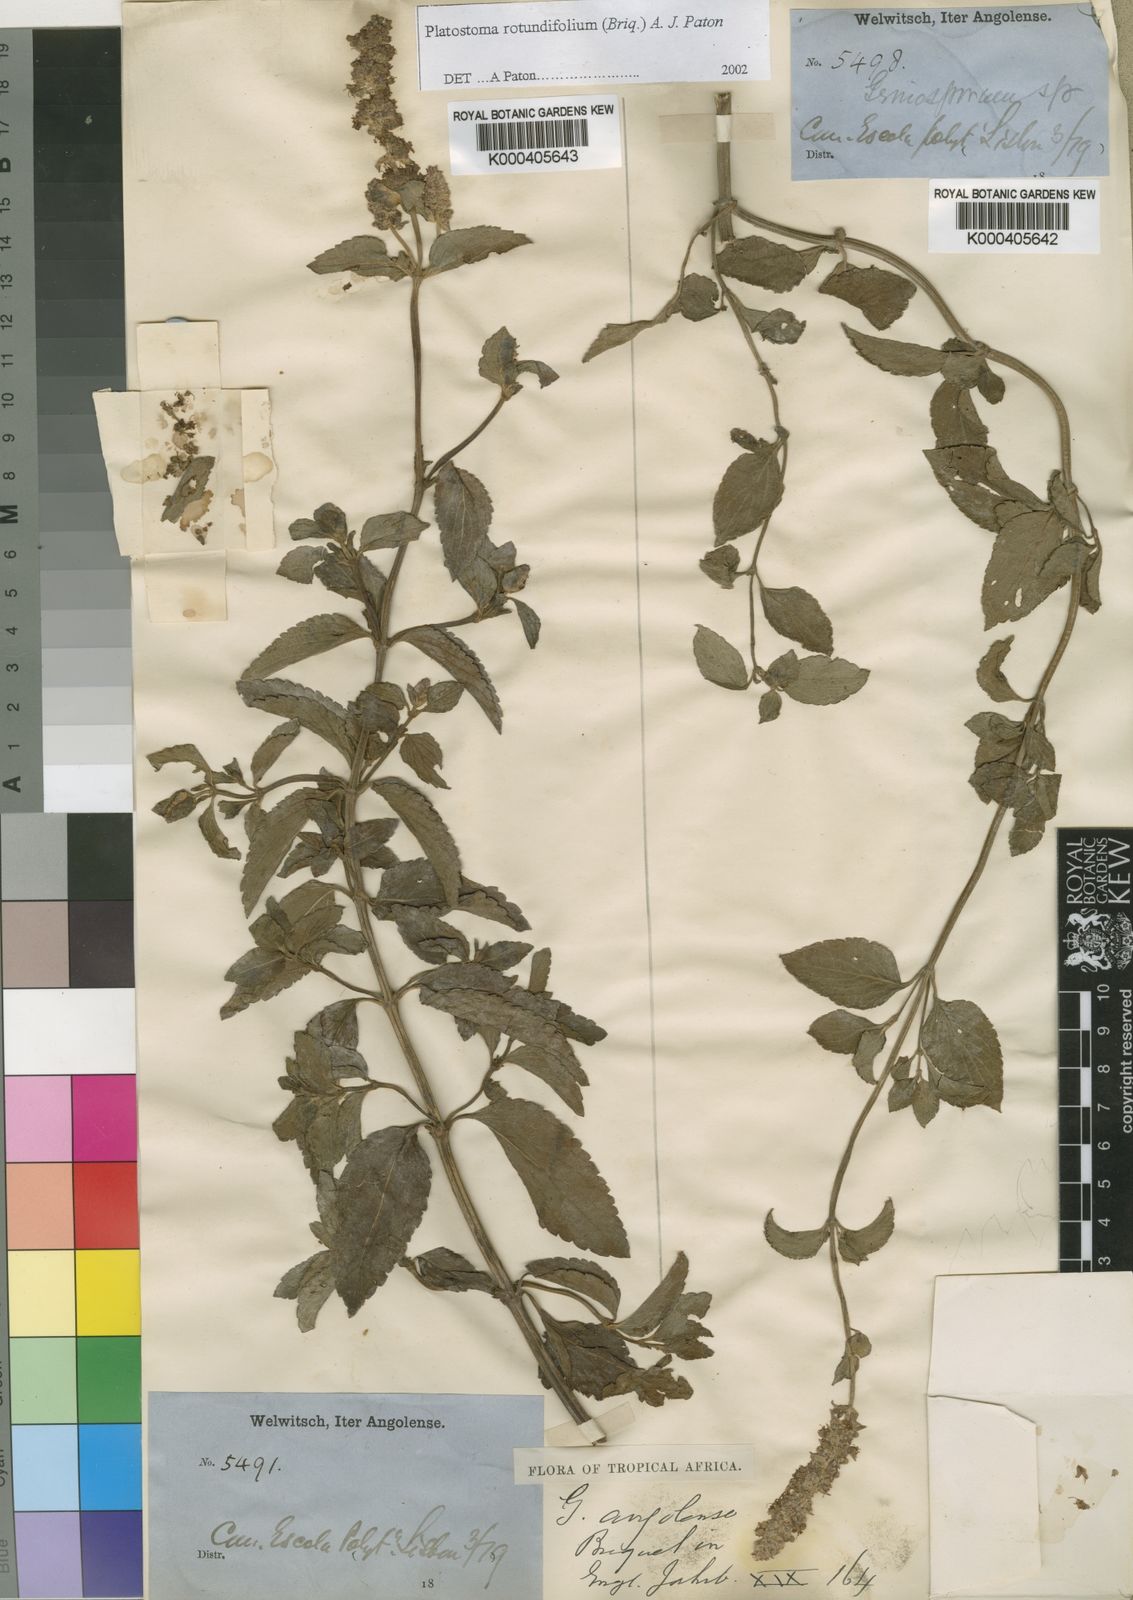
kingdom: Plantae
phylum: Tracheophyta
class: Magnoliopsida
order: Lamiales
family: Lamiaceae
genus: Platostoma
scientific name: Platostoma rotundifolium
